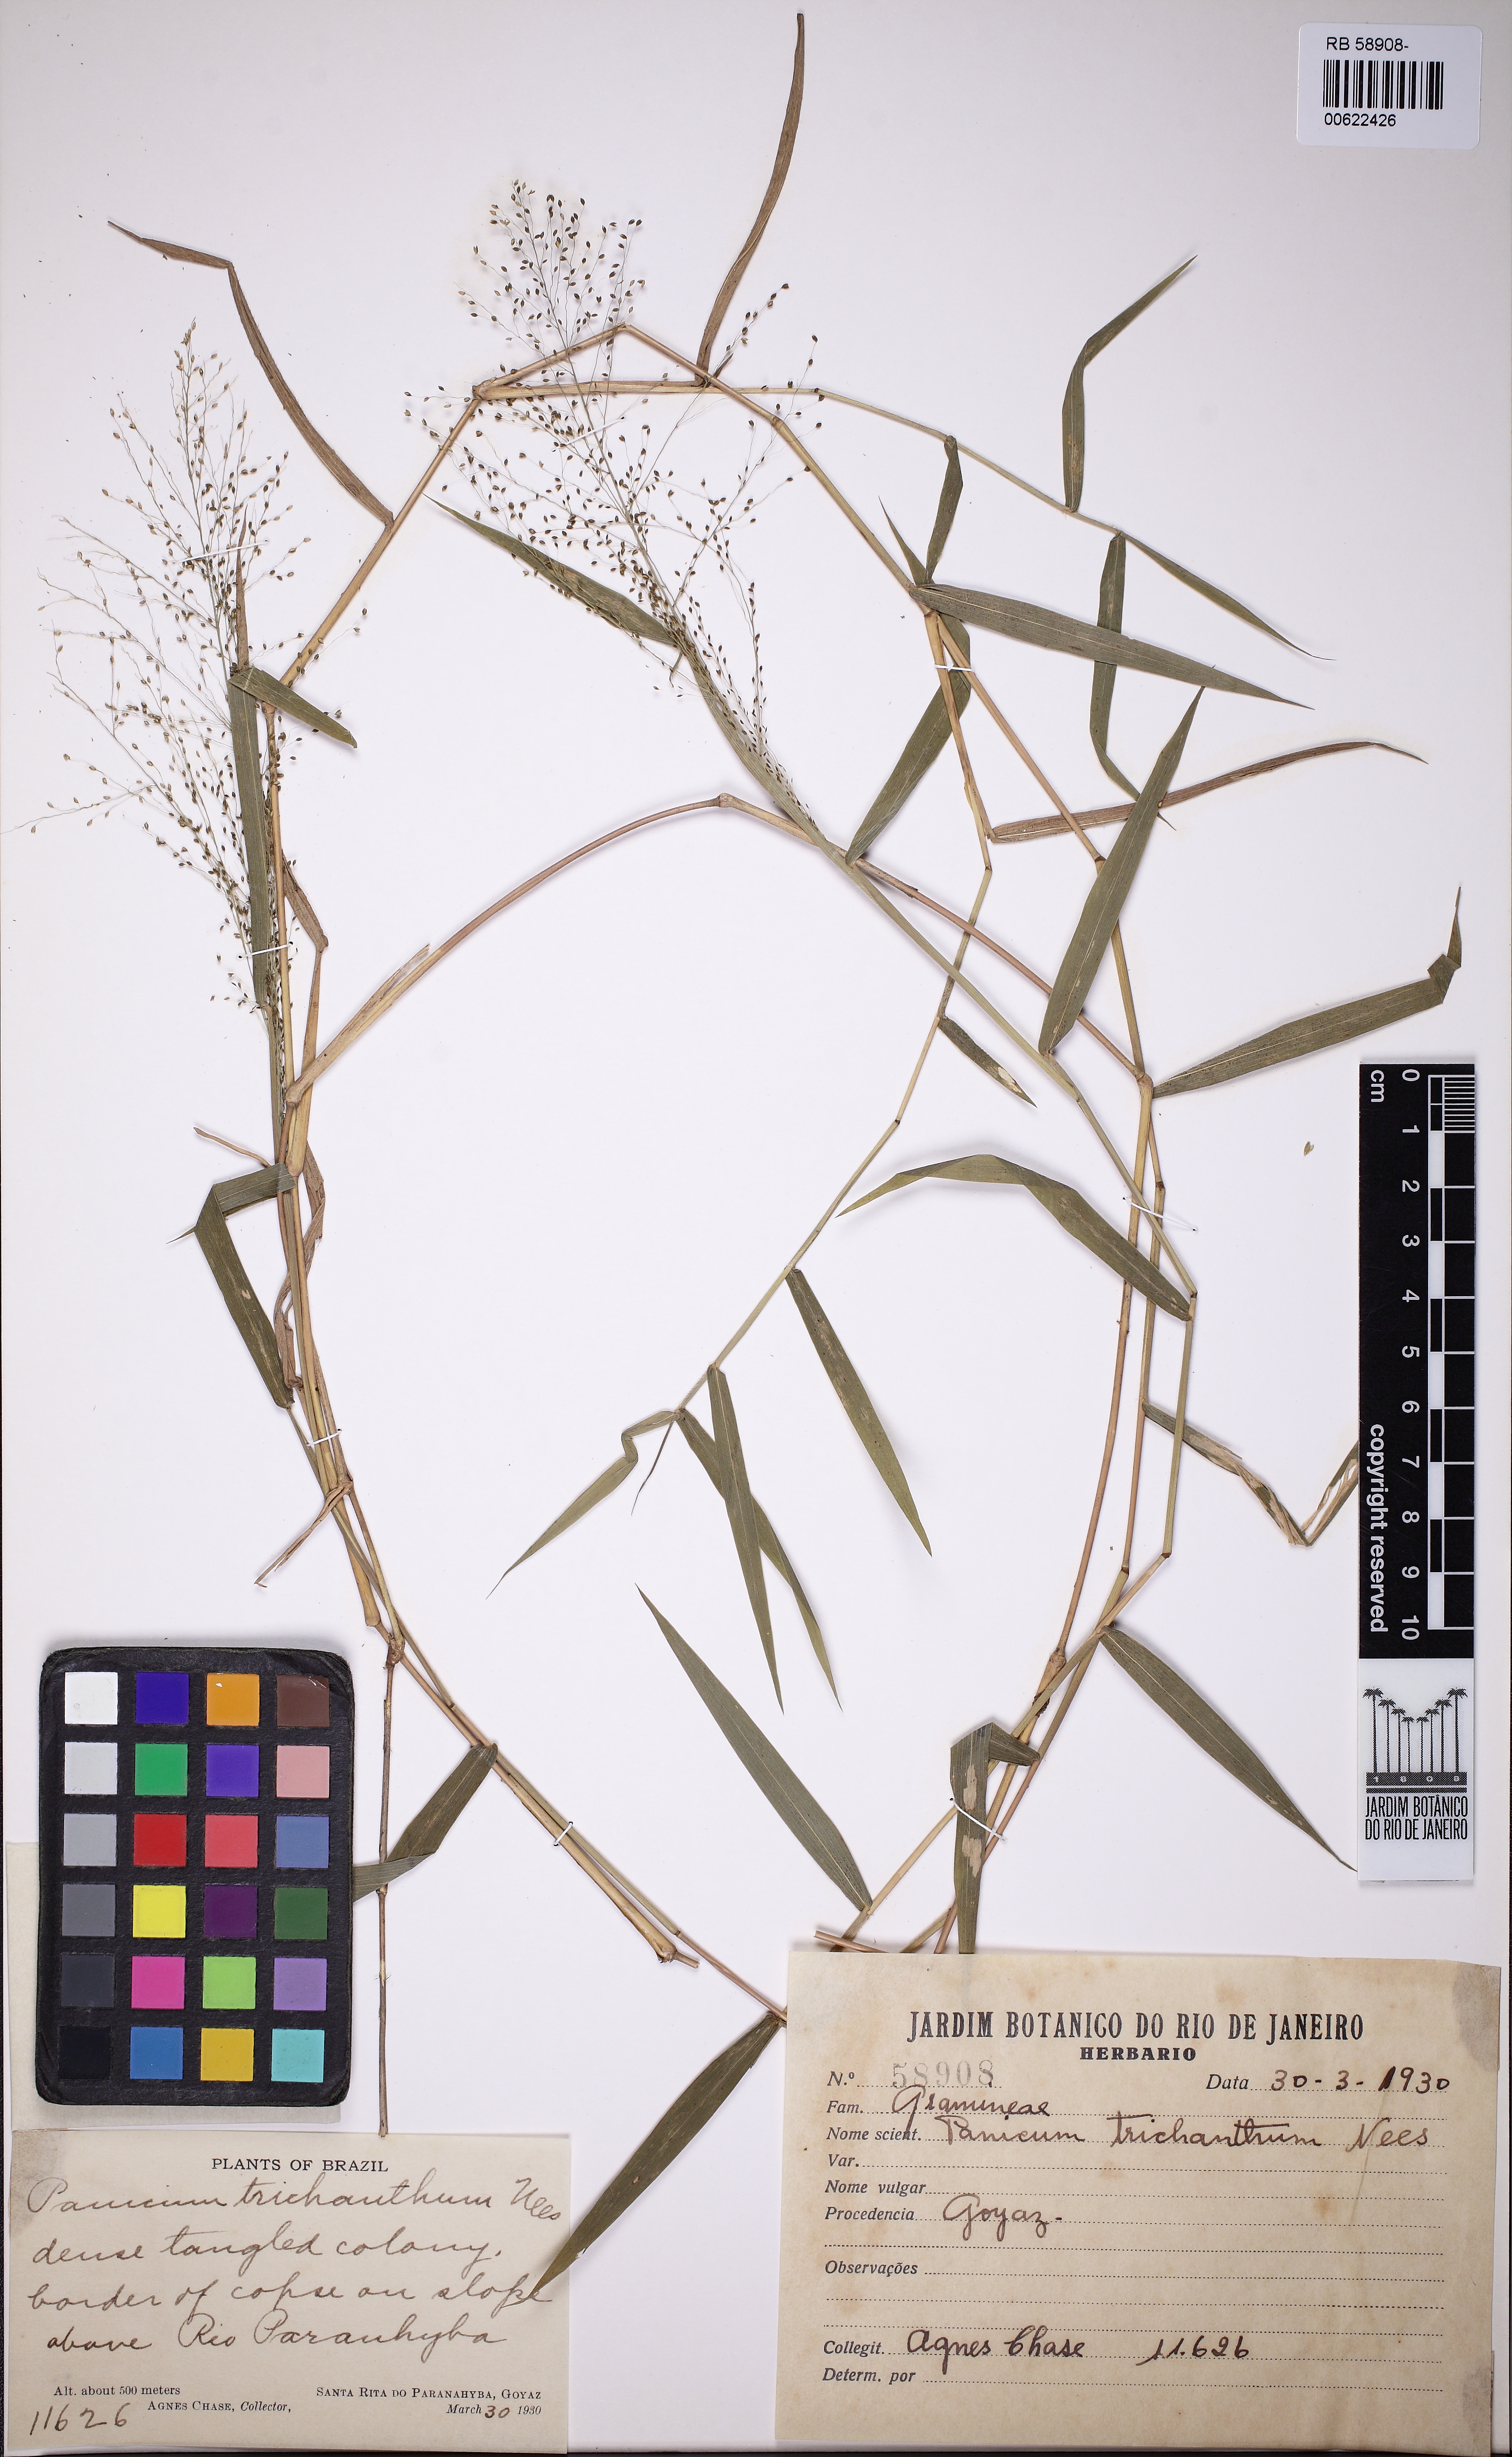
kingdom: Plantae
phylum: Tracheophyta
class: Liliopsida
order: Poales
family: Poaceae
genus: Panicum
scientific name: Panicum trichanthum
